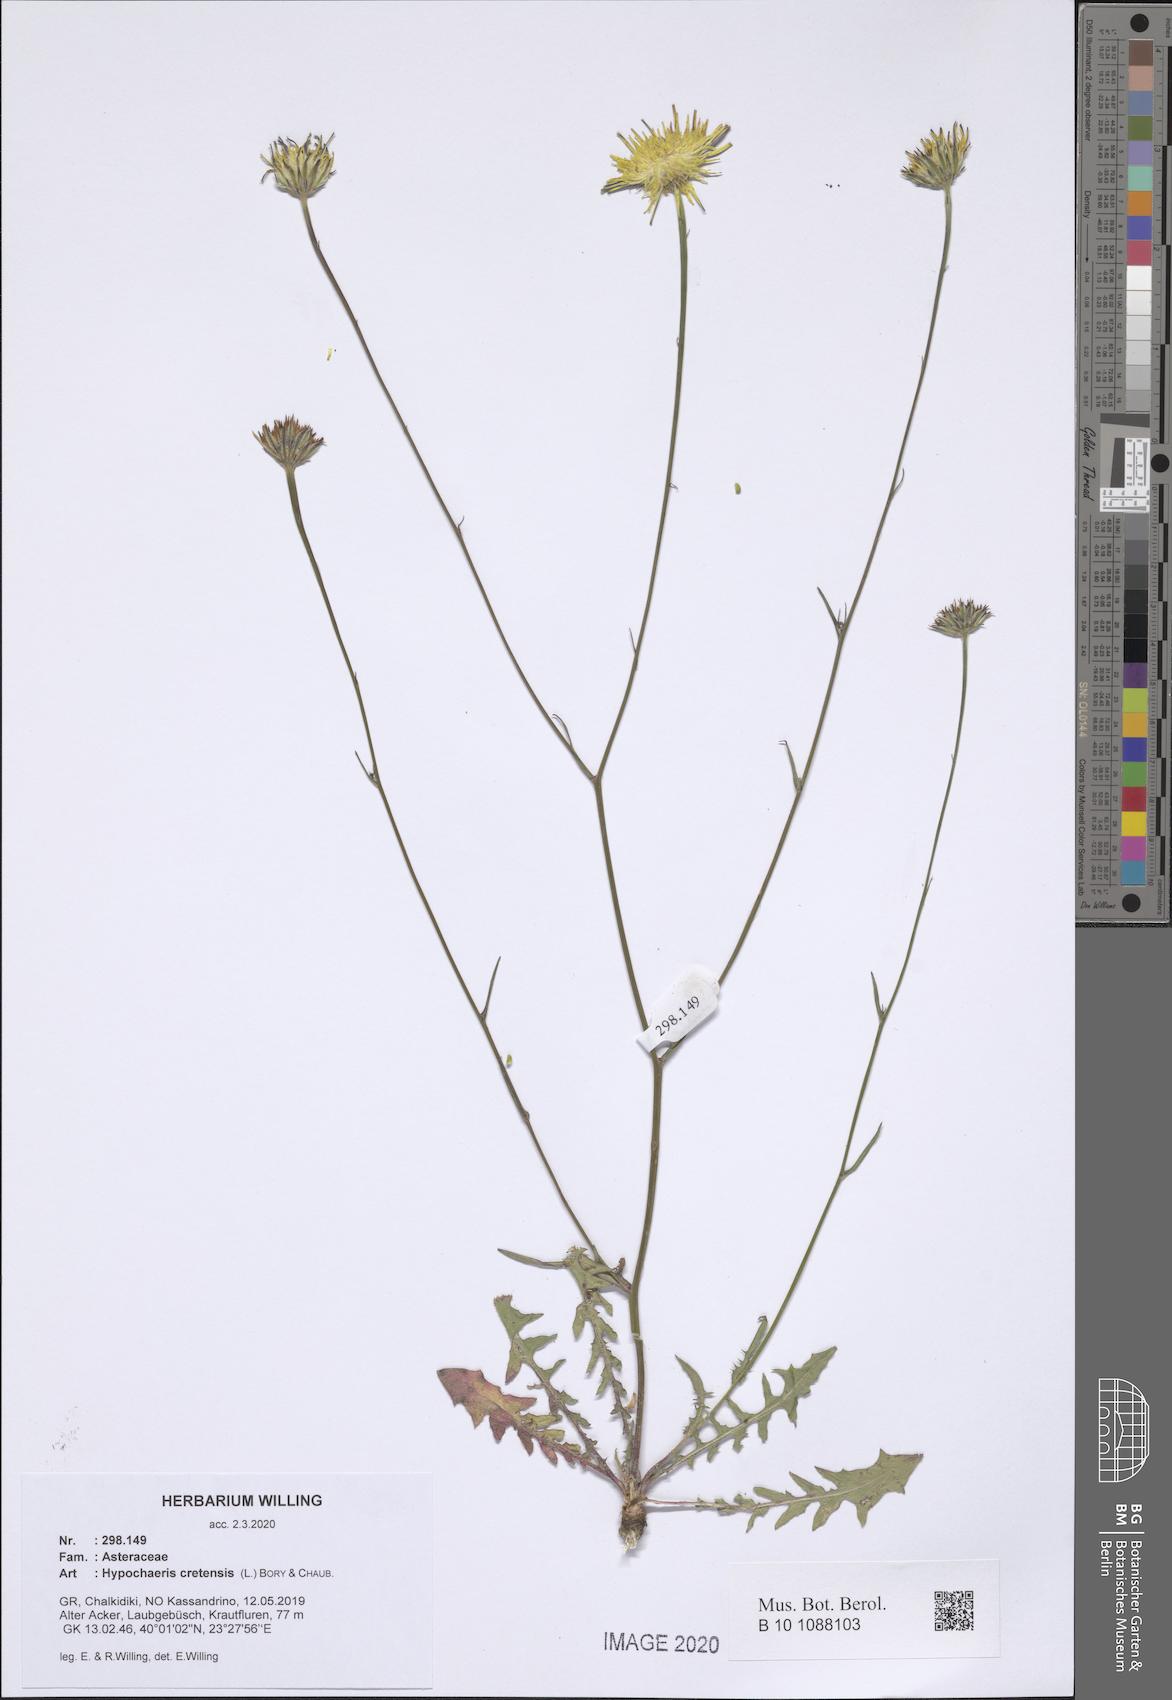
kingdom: Plantae
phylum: Tracheophyta
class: Magnoliopsida
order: Asterales
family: Asteraceae
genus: Hypochaeris
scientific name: Hypochaeris cretensis
